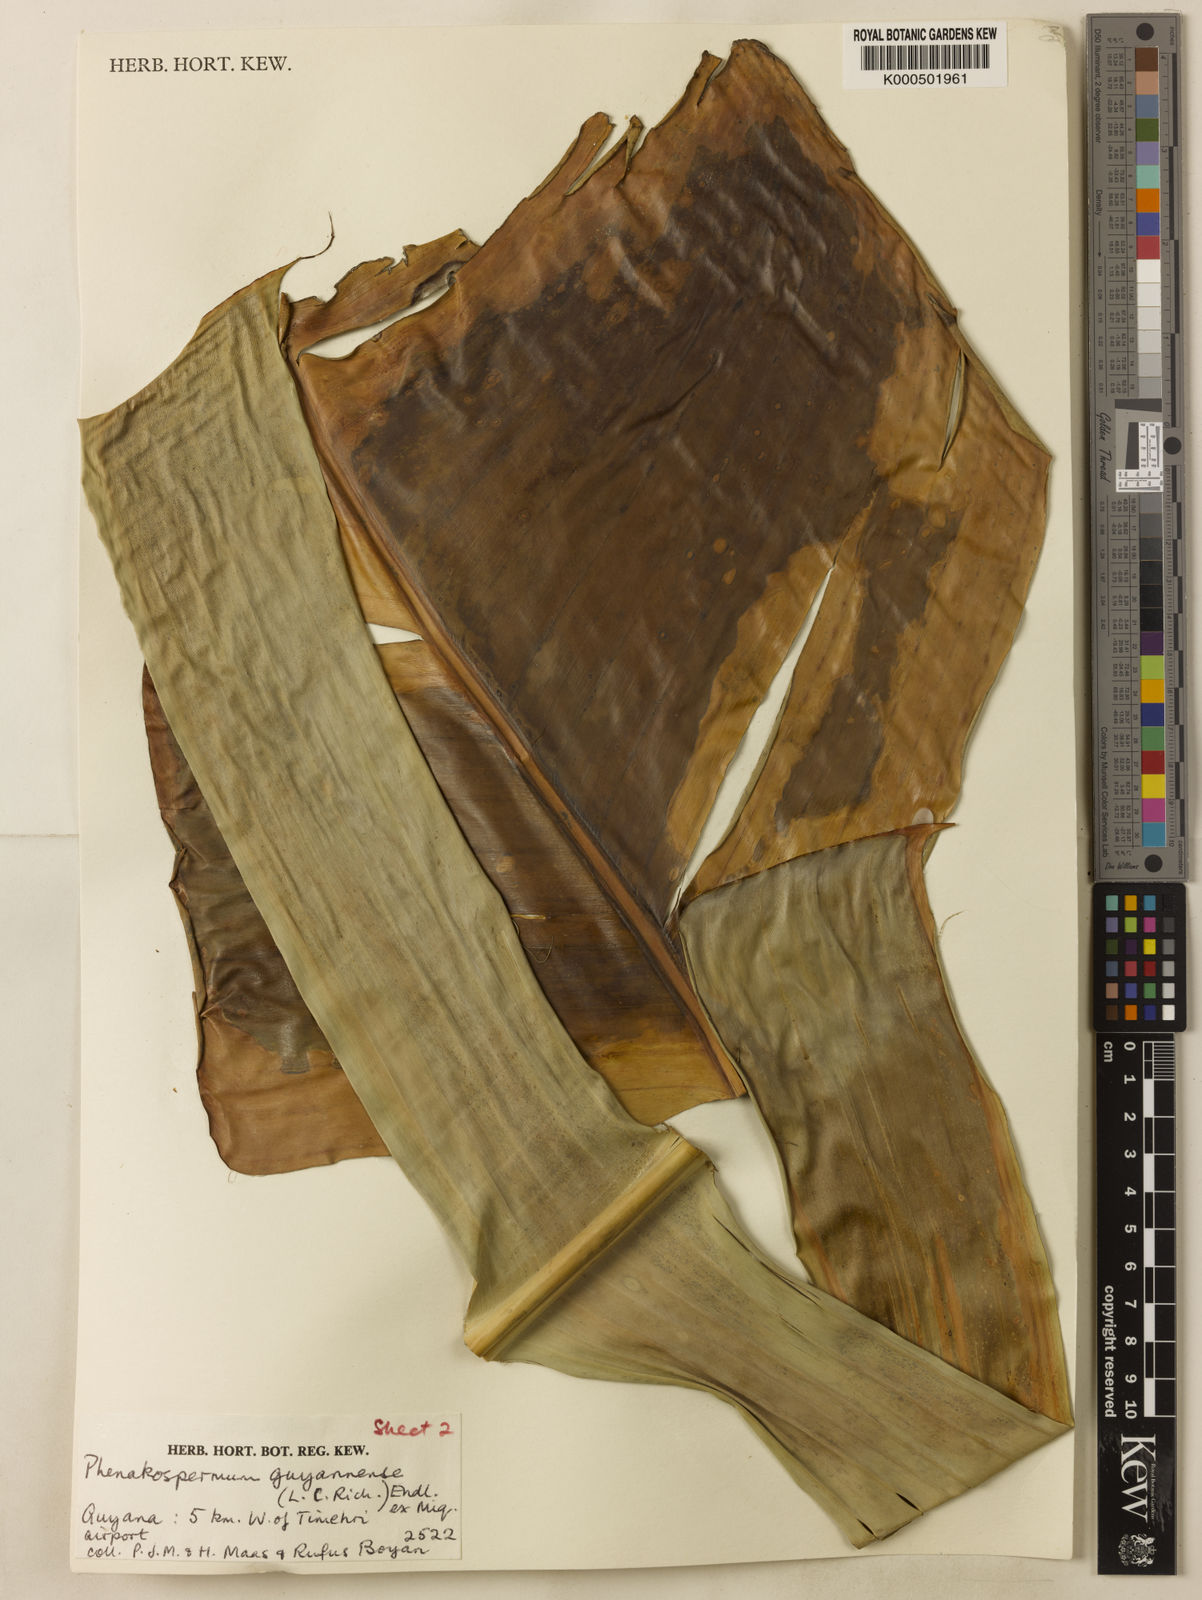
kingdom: Plantae
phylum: Tracheophyta
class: Liliopsida
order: Zingiberales
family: Strelitziaceae
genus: Phenakospermum
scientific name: Phenakospermum guyannense
